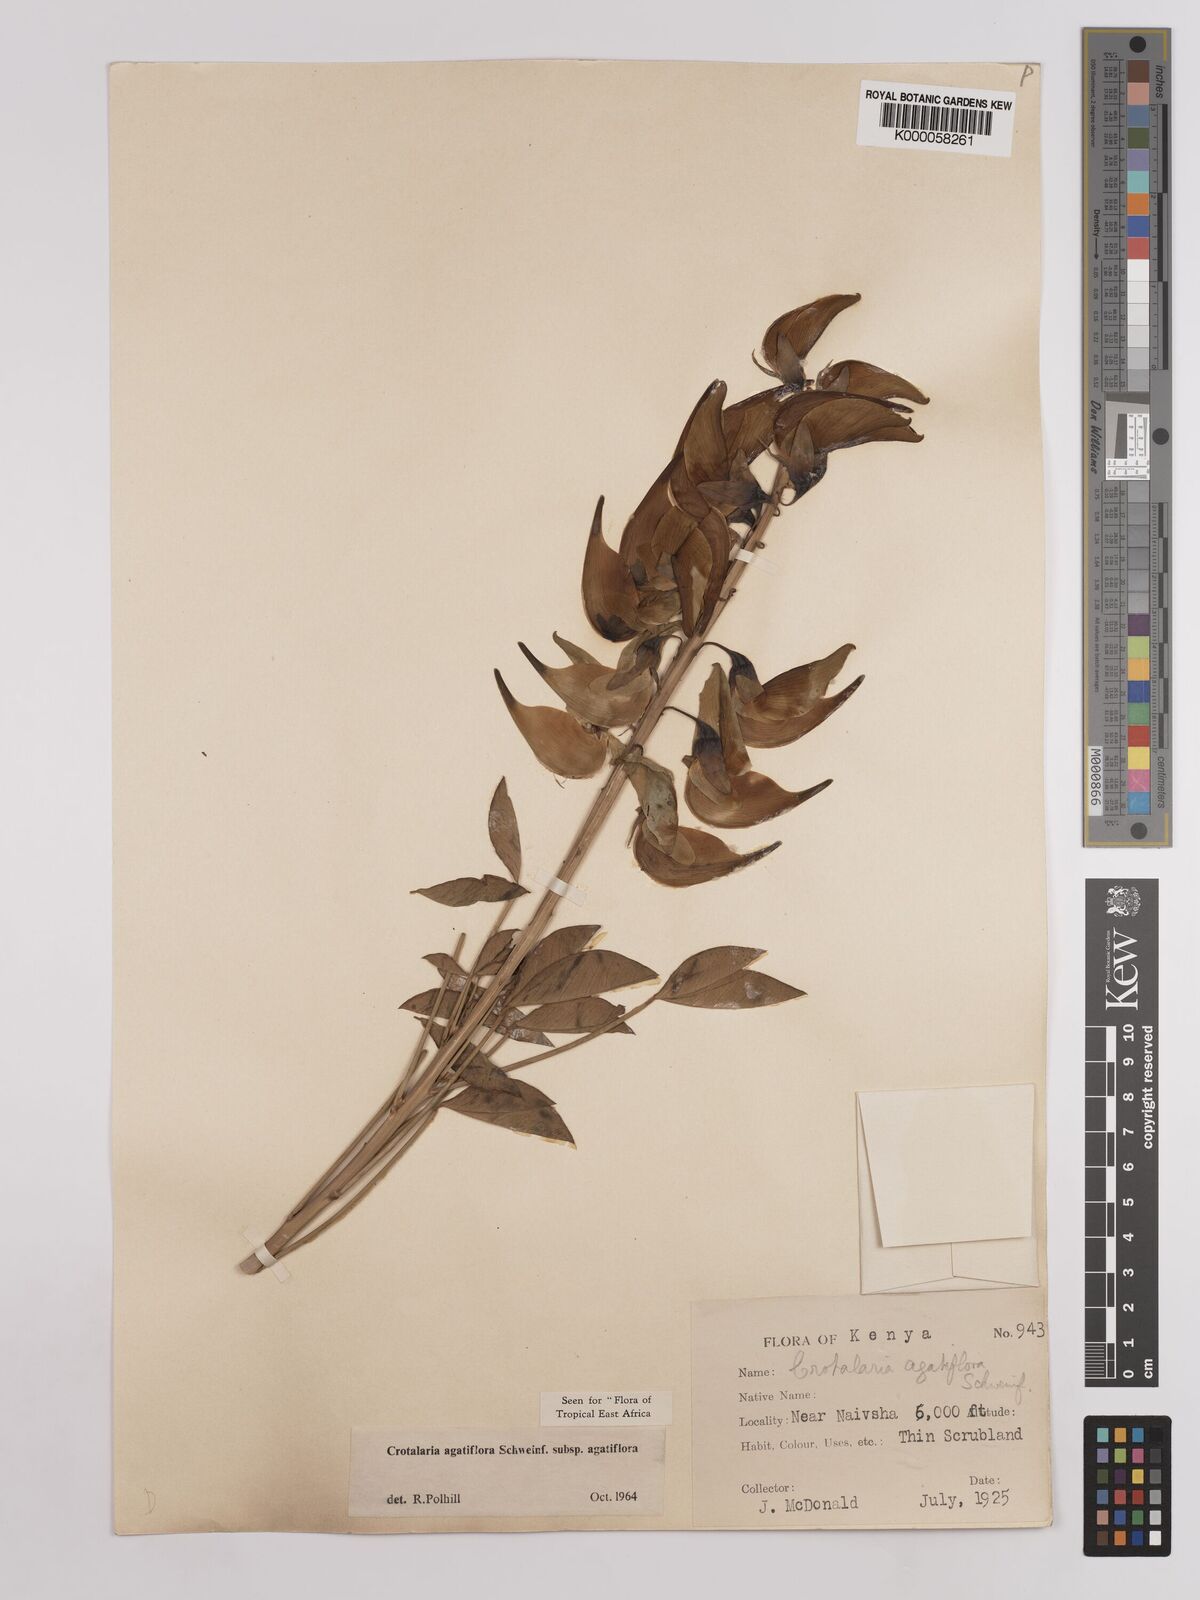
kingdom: Plantae
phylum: Tracheophyta
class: Magnoliopsida
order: Fabales
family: Fabaceae
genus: Crotalaria
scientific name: Crotalaria
